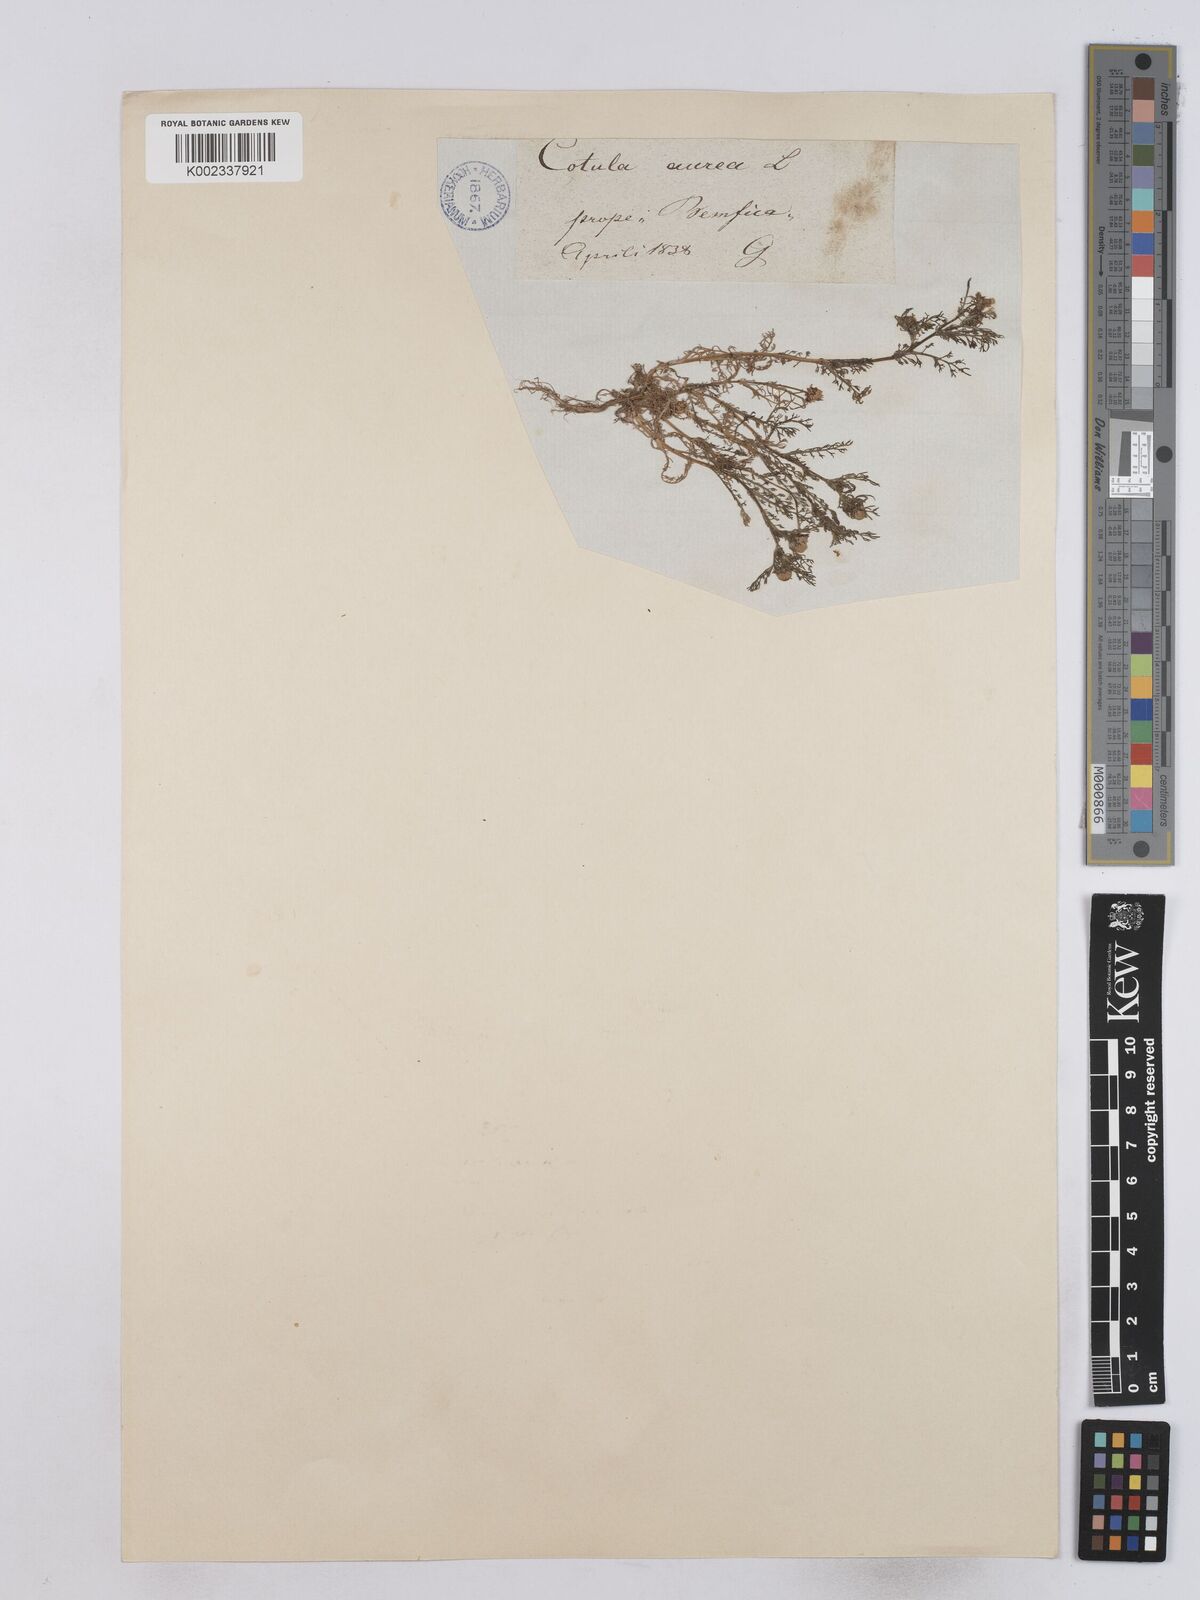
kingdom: Plantae
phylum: Tracheophyta
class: Magnoliopsida
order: Asterales
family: Asteraceae
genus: Matricaria
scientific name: Matricaria aurea
